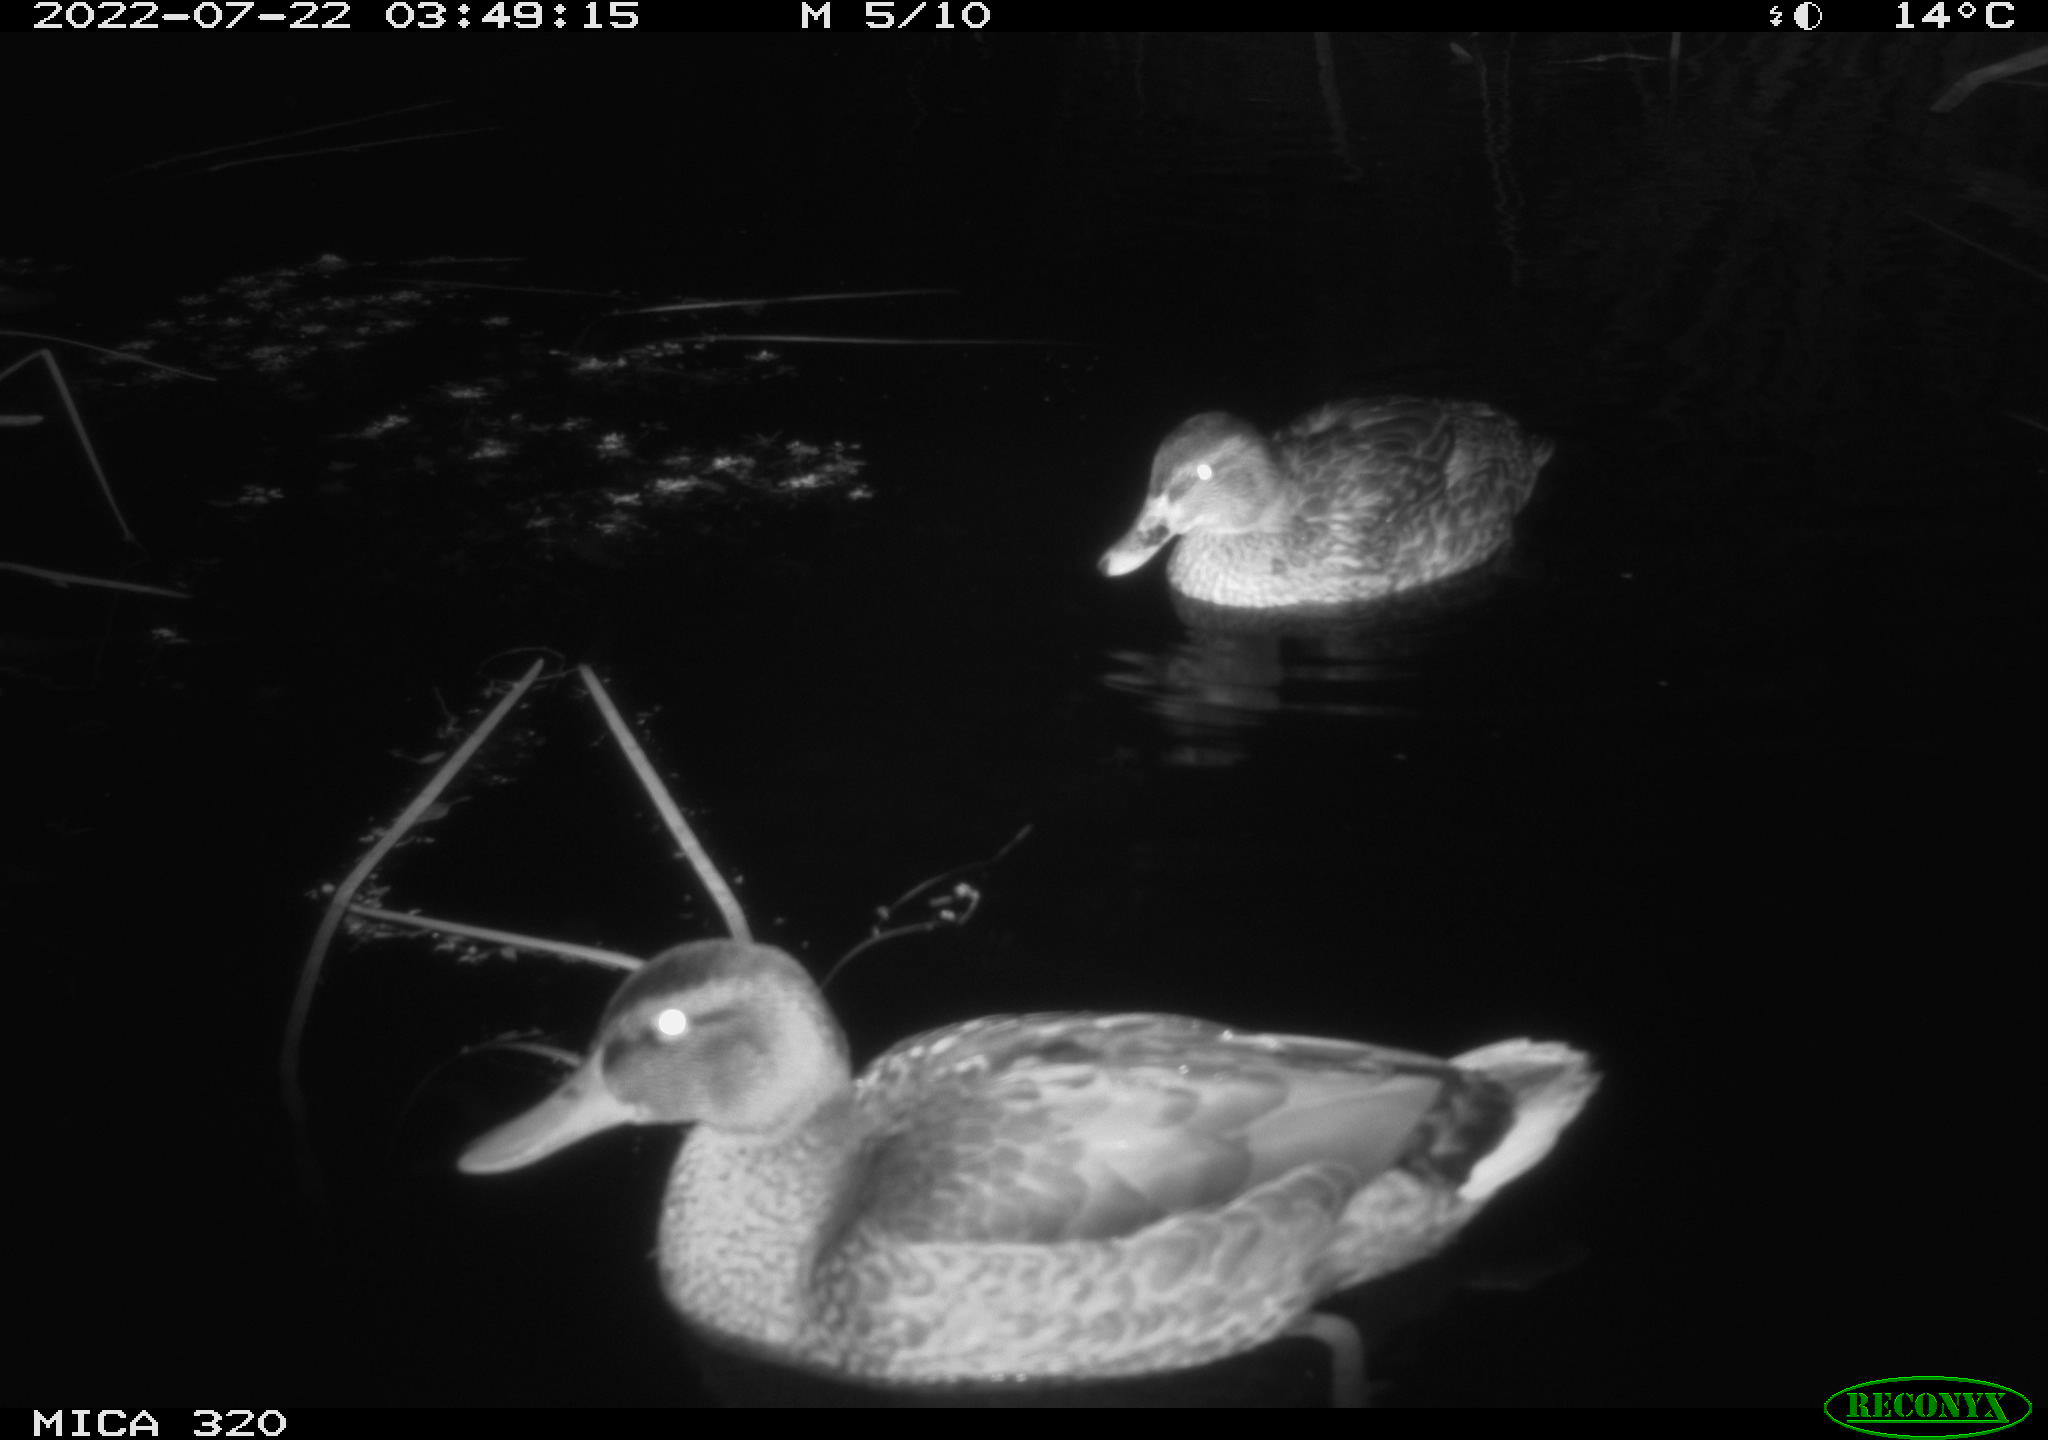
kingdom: Animalia
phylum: Chordata
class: Aves
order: Anseriformes
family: Anatidae
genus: Anas
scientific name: Anas platyrhynchos
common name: Mallard
